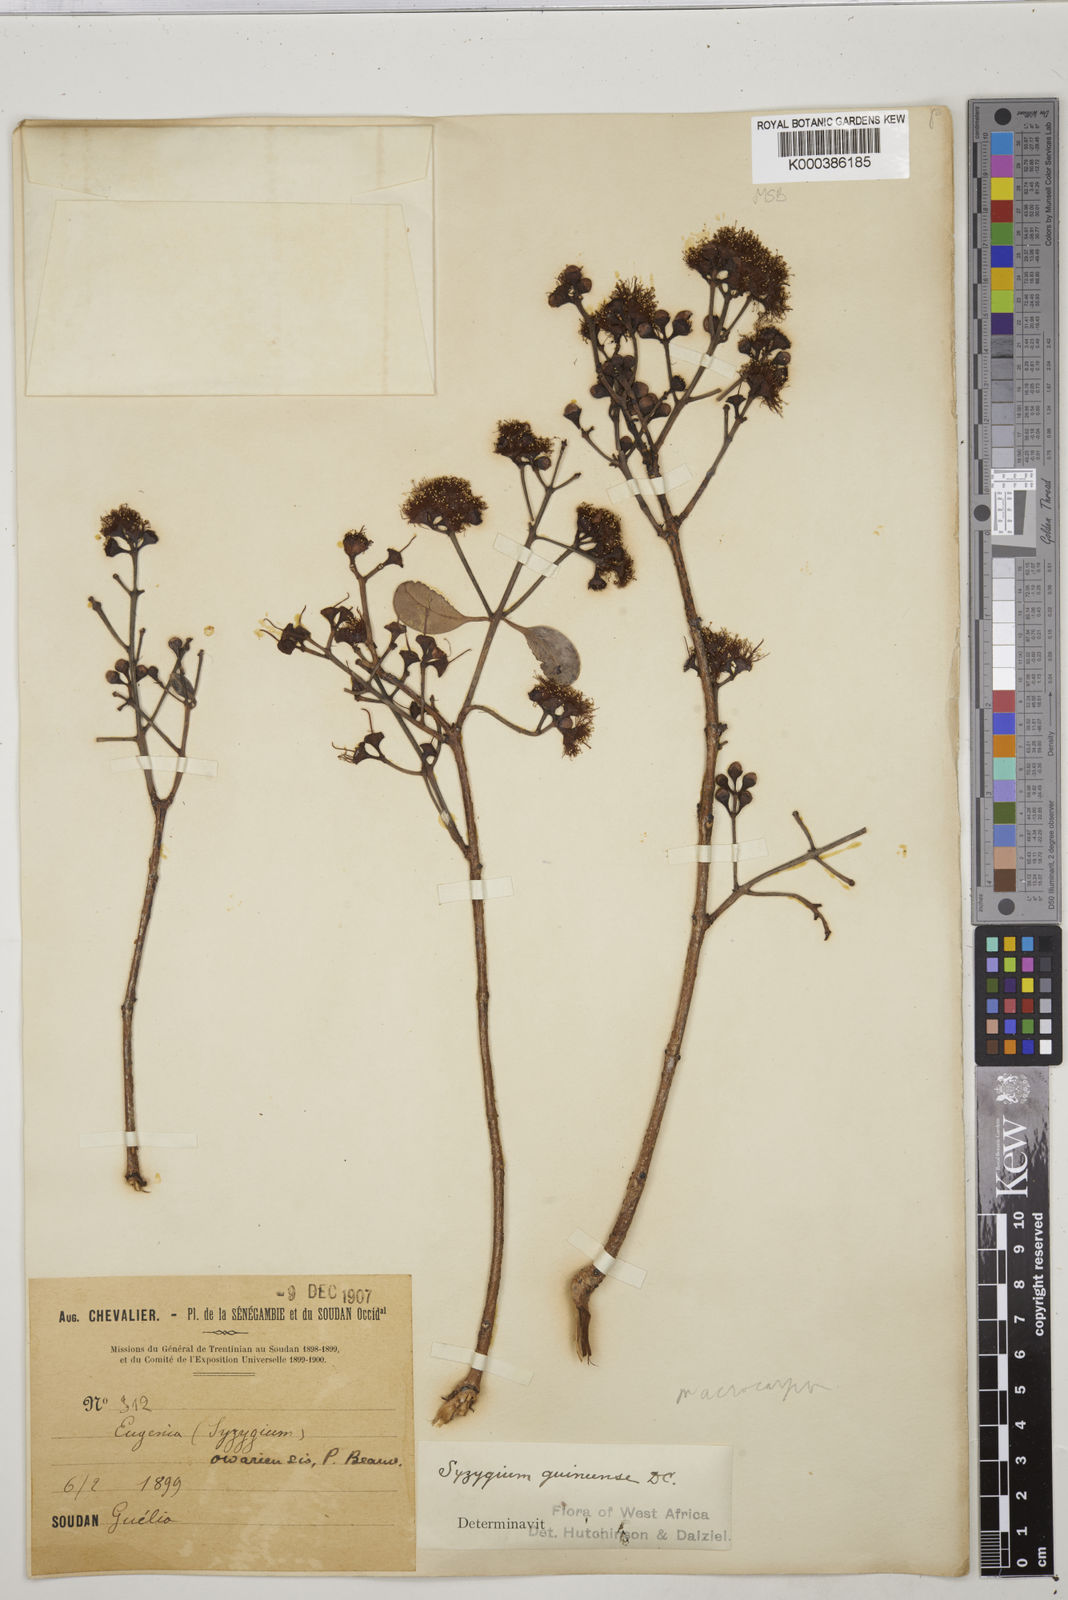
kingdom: Plantae
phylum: Tracheophyta
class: Magnoliopsida
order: Myrtales
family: Myrtaceae
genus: Syzygium
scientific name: Syzygium guineense
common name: Water-pear
